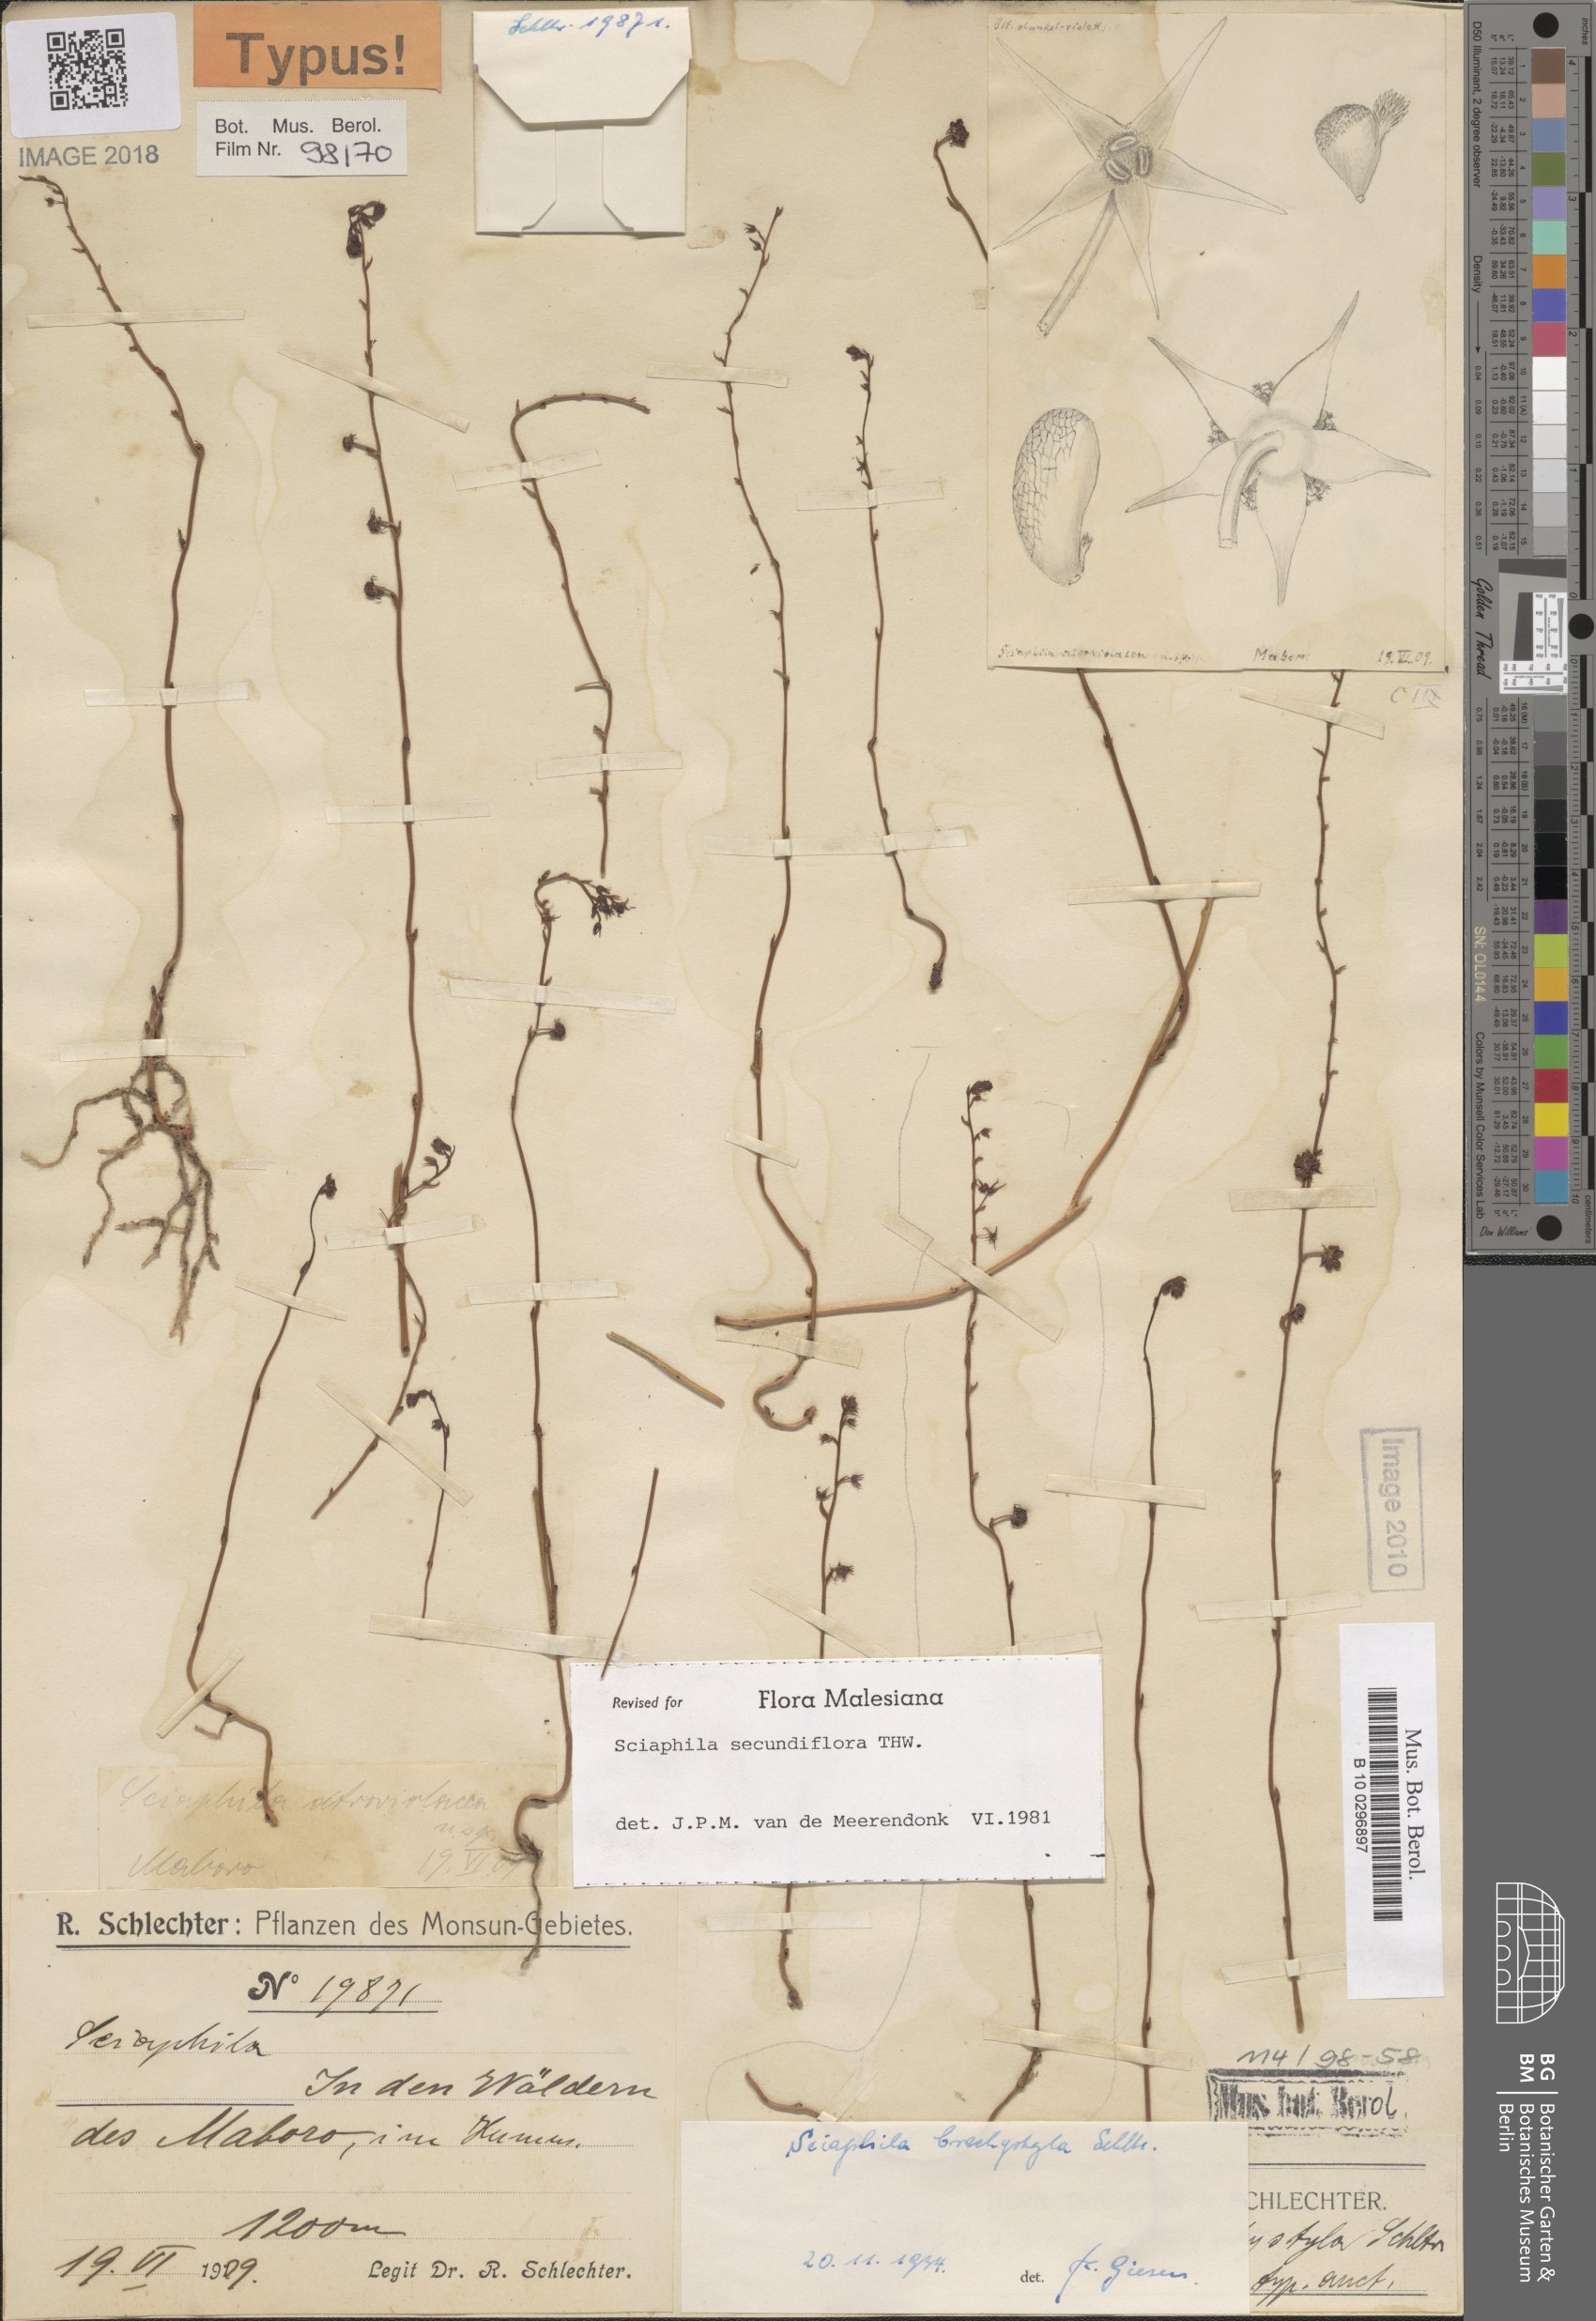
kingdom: Plantae
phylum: Tracheophyta
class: Liliopsida
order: Pandanales
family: Triuridaceae
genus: Sciaphila
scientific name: Sciaphila secundiflora
